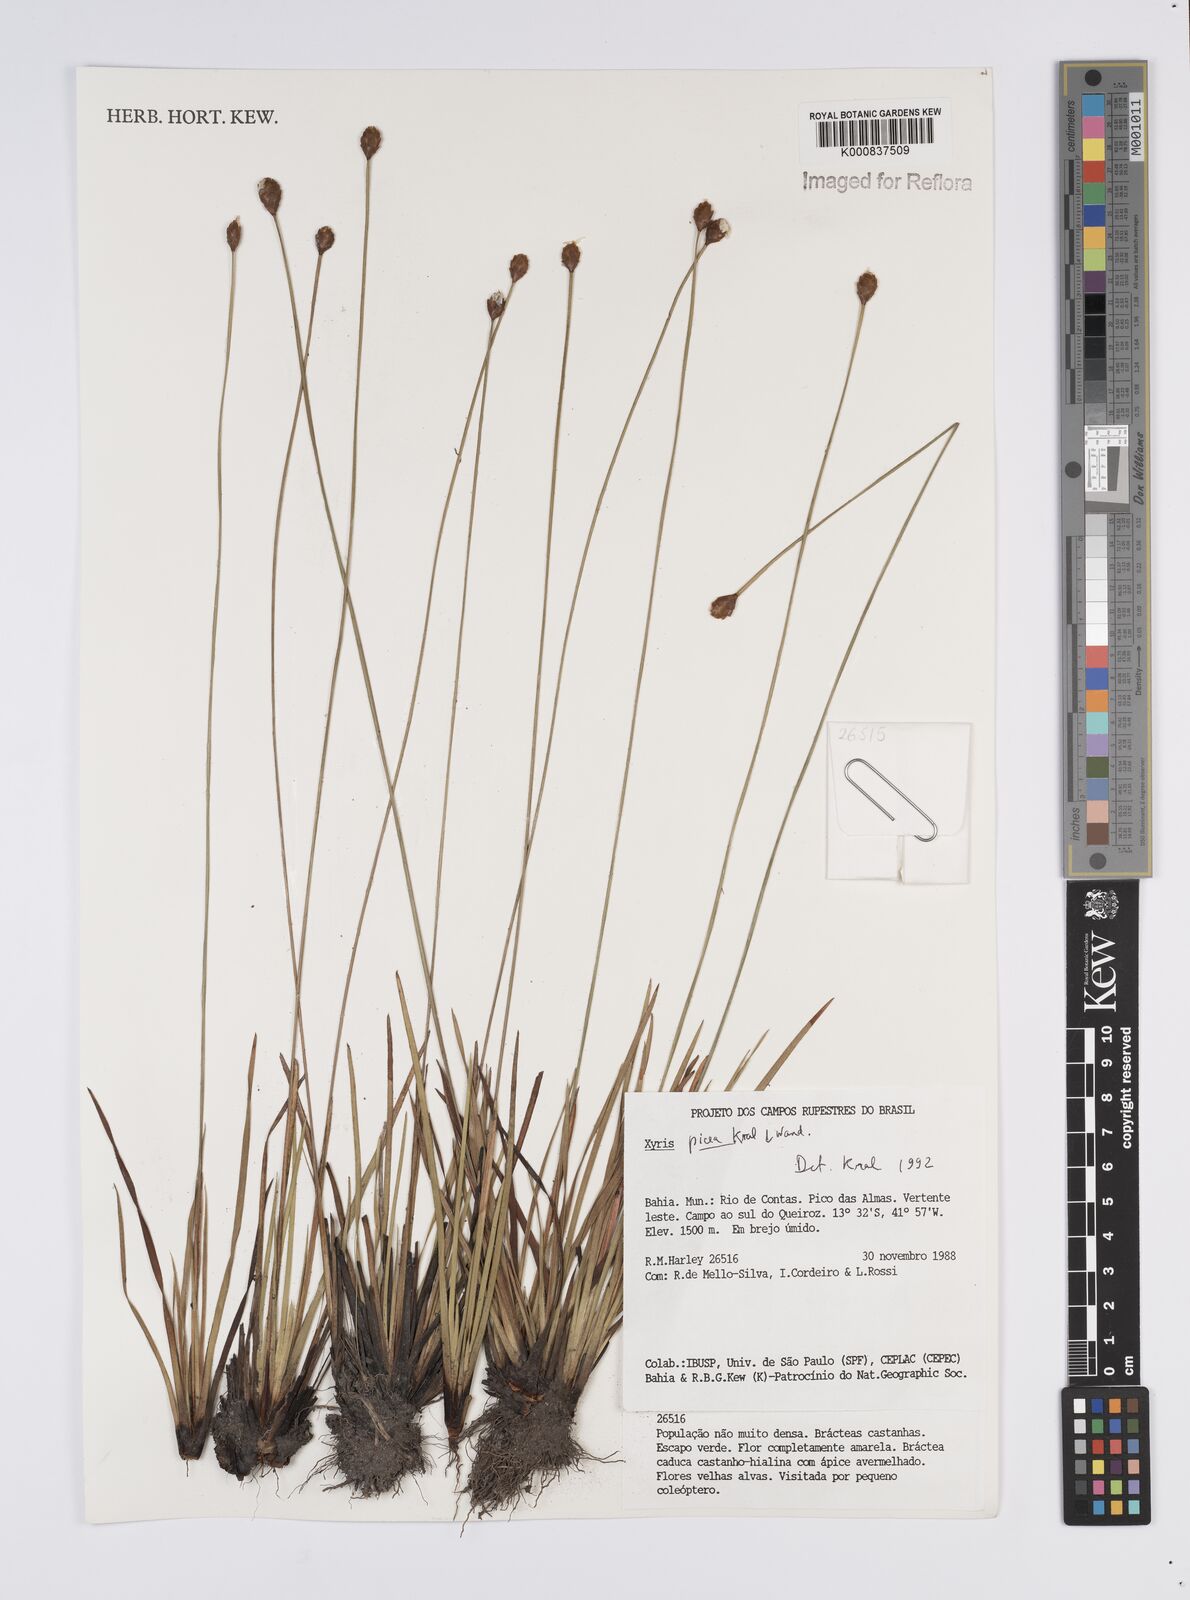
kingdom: Plantae
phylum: Tracheophyta
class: Liliopsida
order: Poales
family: Xyridaceae
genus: Xyris
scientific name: Xyris picea
